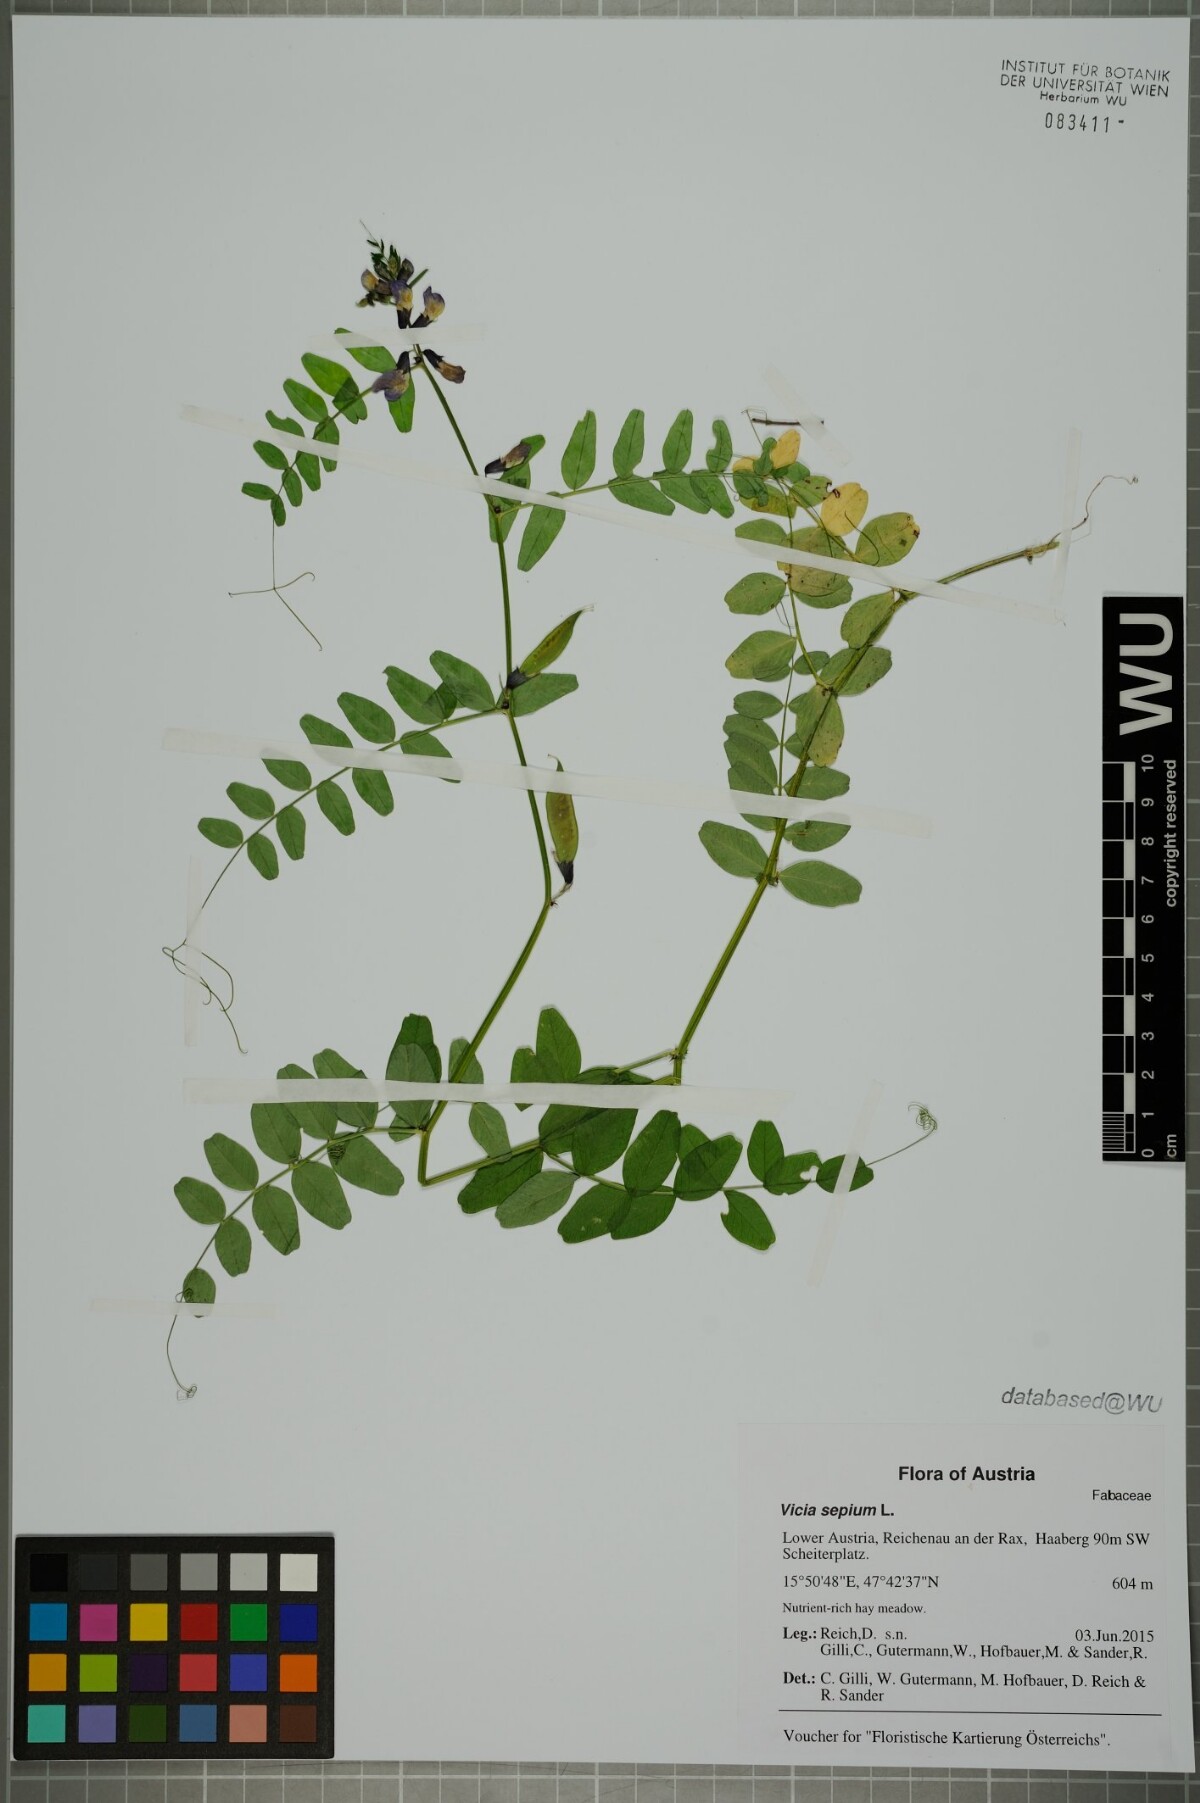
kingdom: Plantae
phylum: Tracheophyta
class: Magnoliopsida
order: Fabales
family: Fabaceae
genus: Vicia
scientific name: Vicia sepium
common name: Bush vetch
